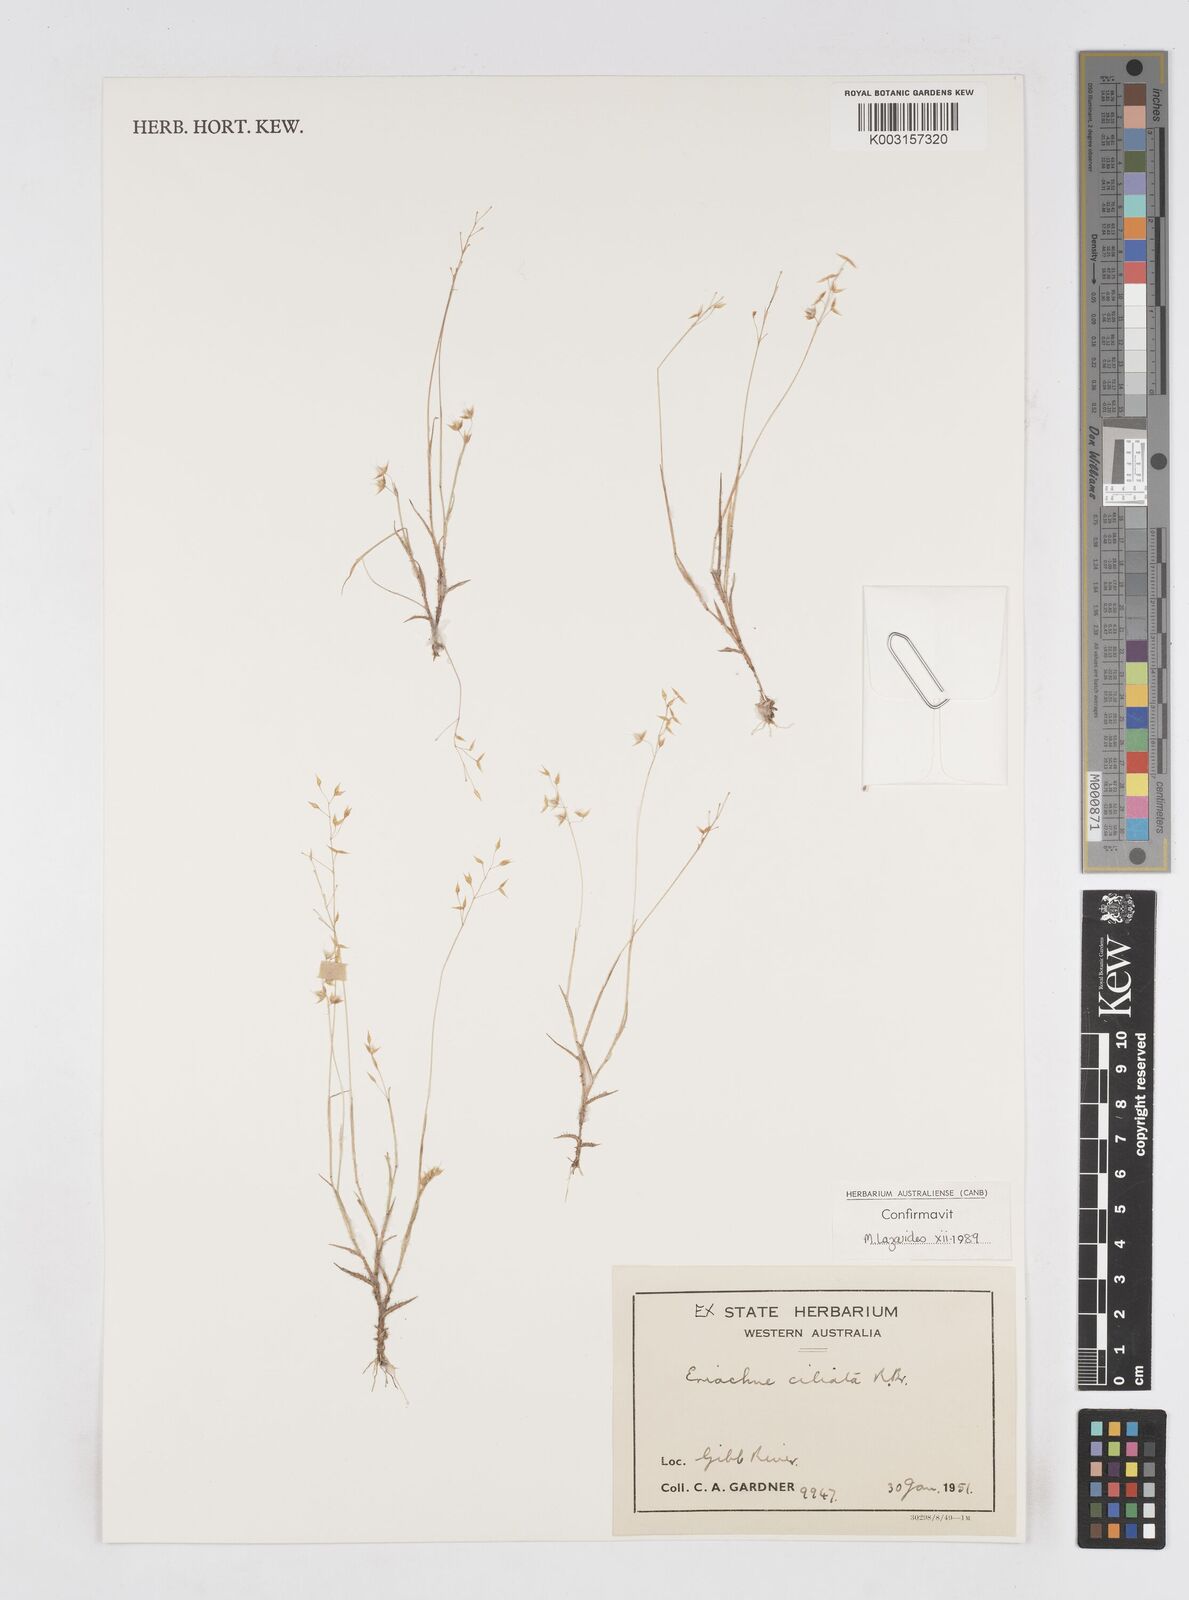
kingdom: Plantae
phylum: Tracheophyta
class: Liliopsida
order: Poales
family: Poaceae
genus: Eriachne
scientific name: Eriachne ciliata
